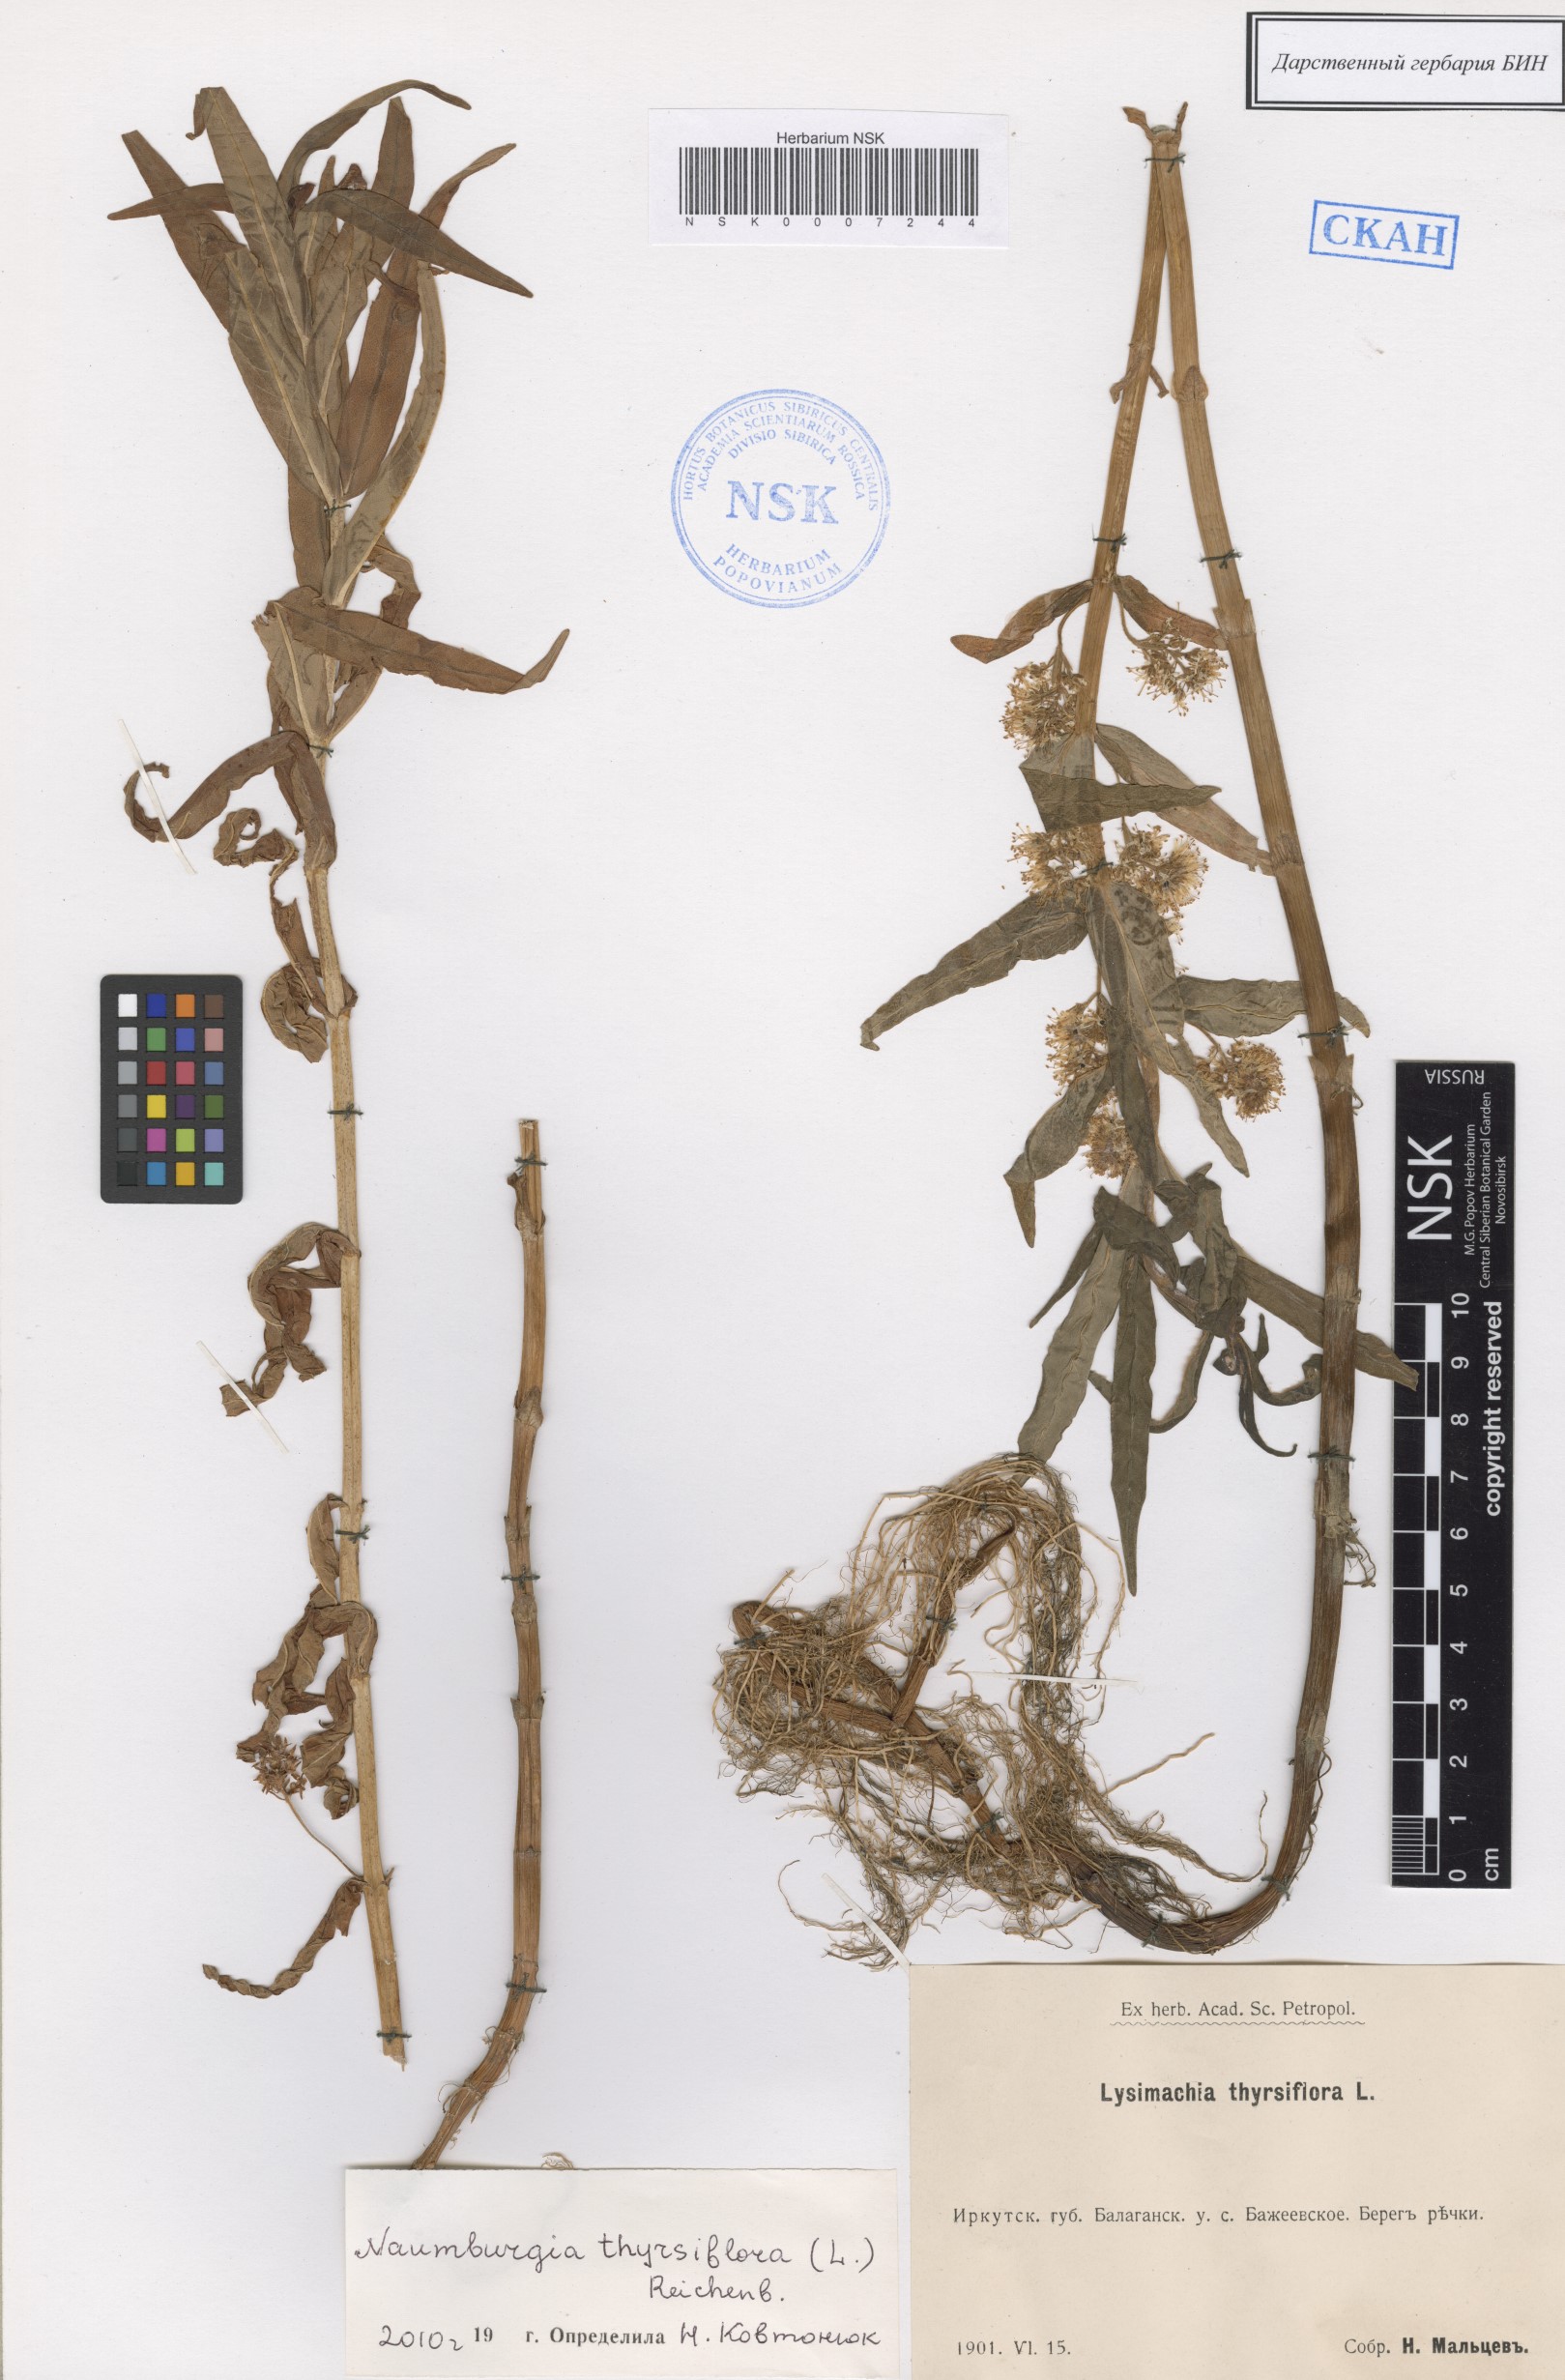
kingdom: Plantae
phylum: Tracheophyta
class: Magnoliopsida
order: Ericales
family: Primulaceae
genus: Lysimachia
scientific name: Lysimachia thyrsiflora
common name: Tufted loosestrife
